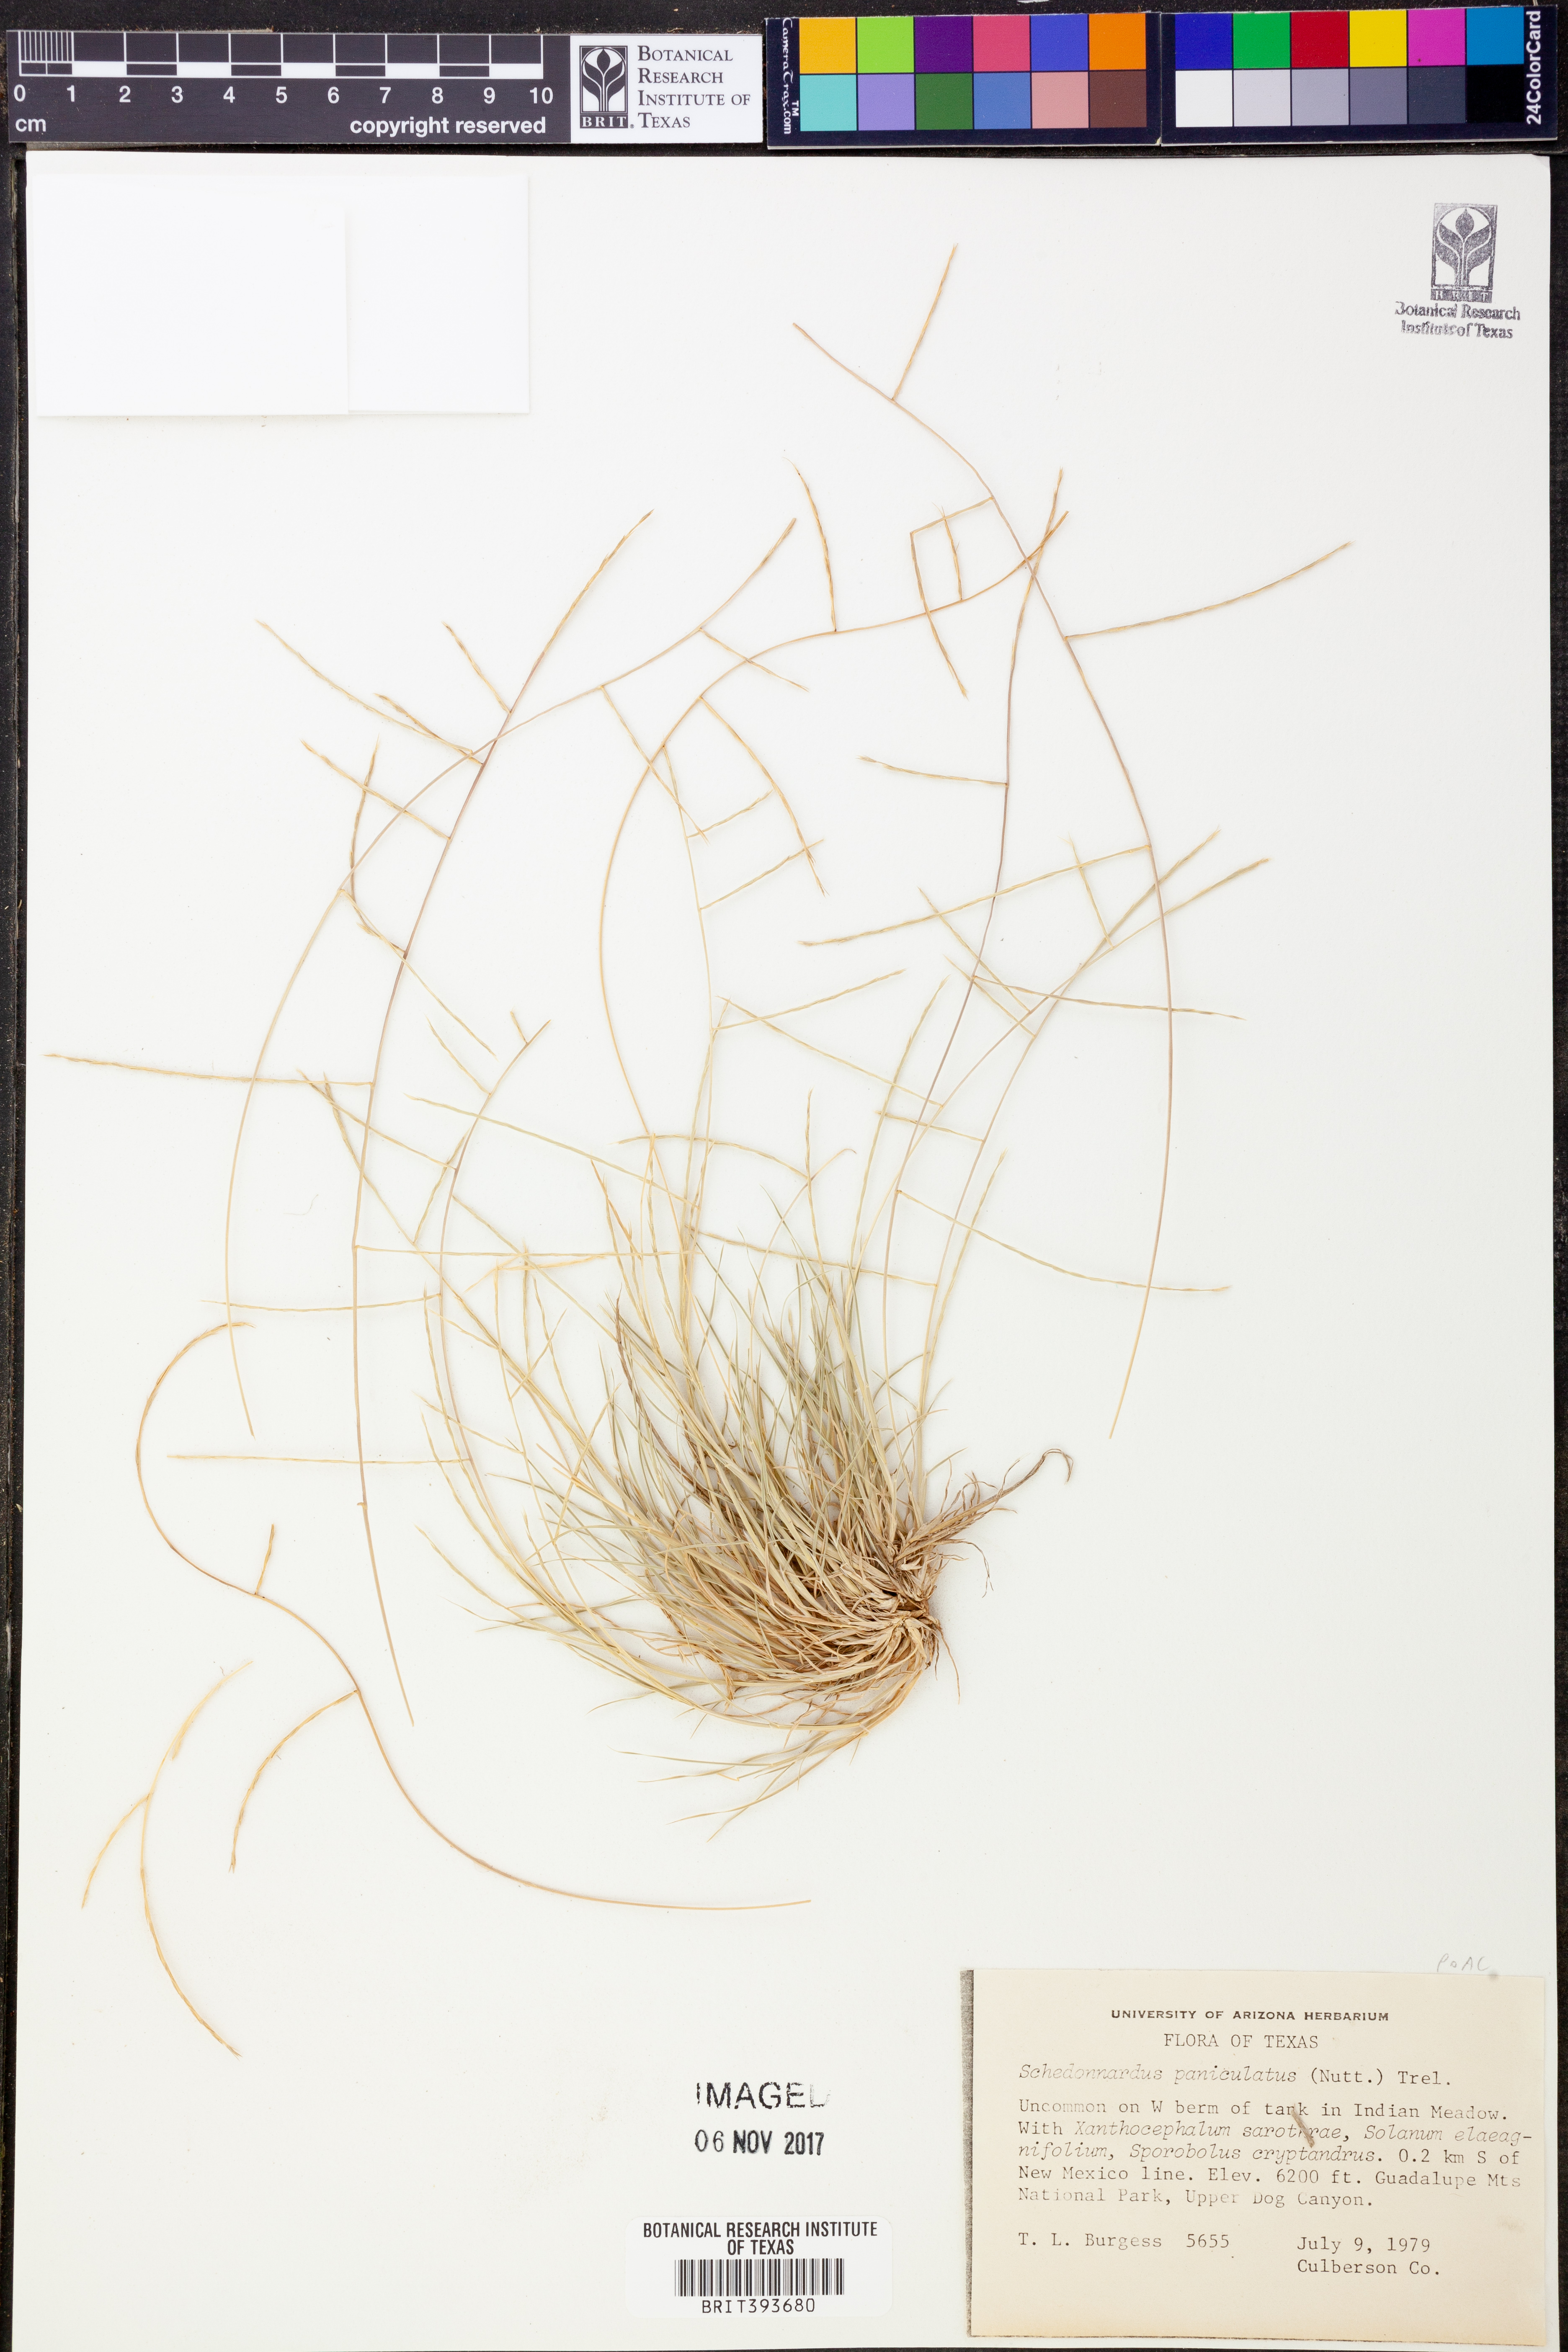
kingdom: Plantae
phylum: Tracheophyta
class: Liliopsida
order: Poales
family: Poaceae
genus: Muhlenbergia
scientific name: Muhlenbergia paniculata
